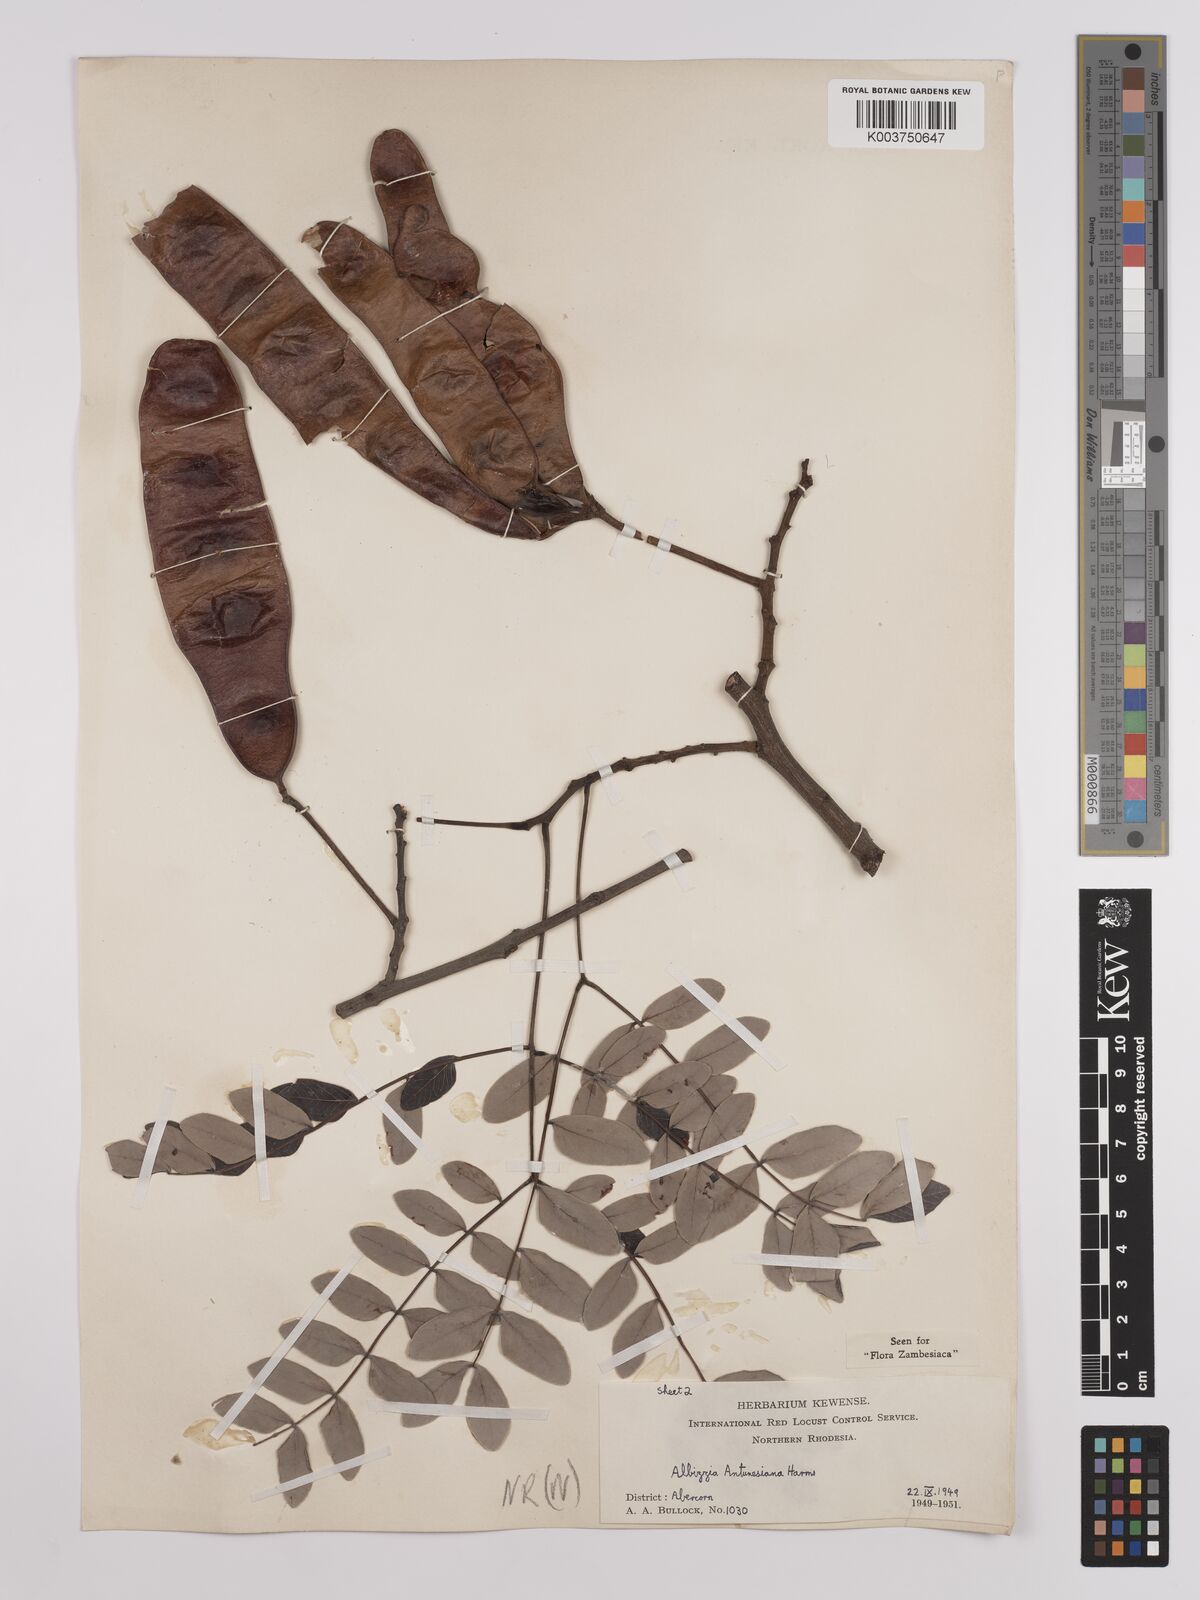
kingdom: Plantae
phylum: Tracheophyta
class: Magnoliopsida
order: Fabales
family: Fabaceae
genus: Albizia
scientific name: Albizia antunesiana
